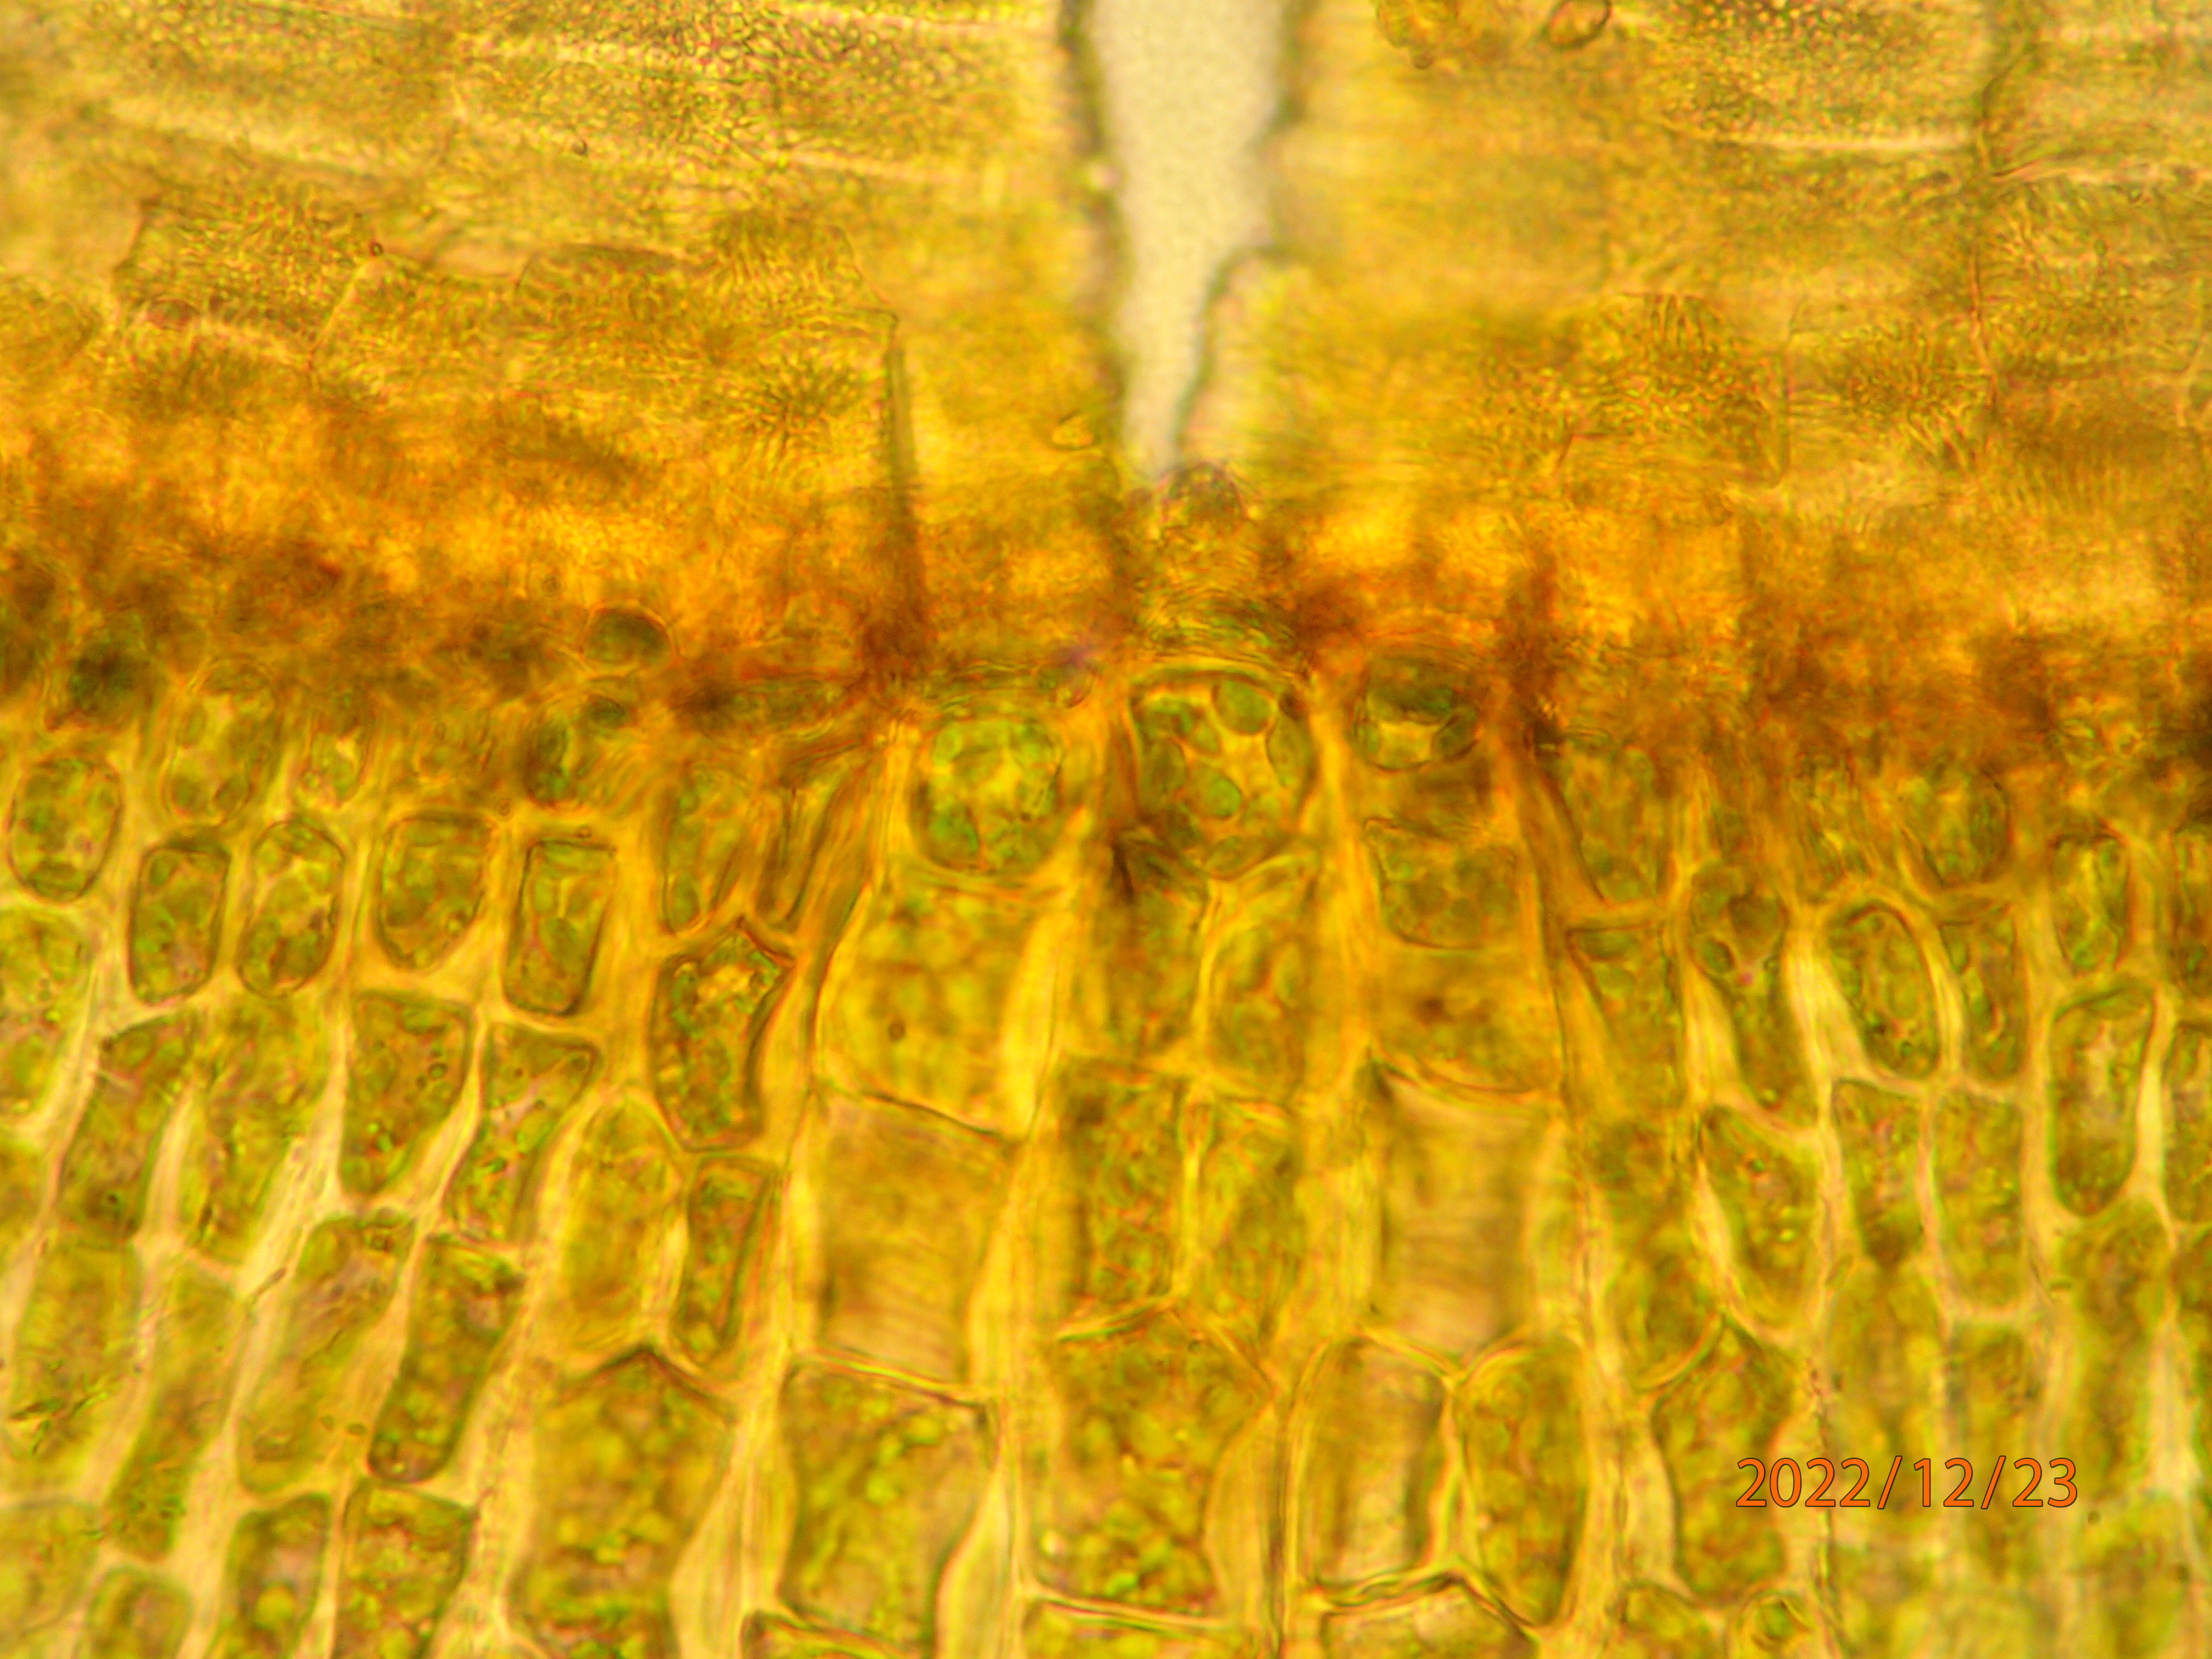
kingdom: Plantae
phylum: Bryophyta
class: Bryopsida
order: Orthotrichales
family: Orthotrichaceae
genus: Ulota
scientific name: Ulota crispa
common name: Kruset låddenhætte
